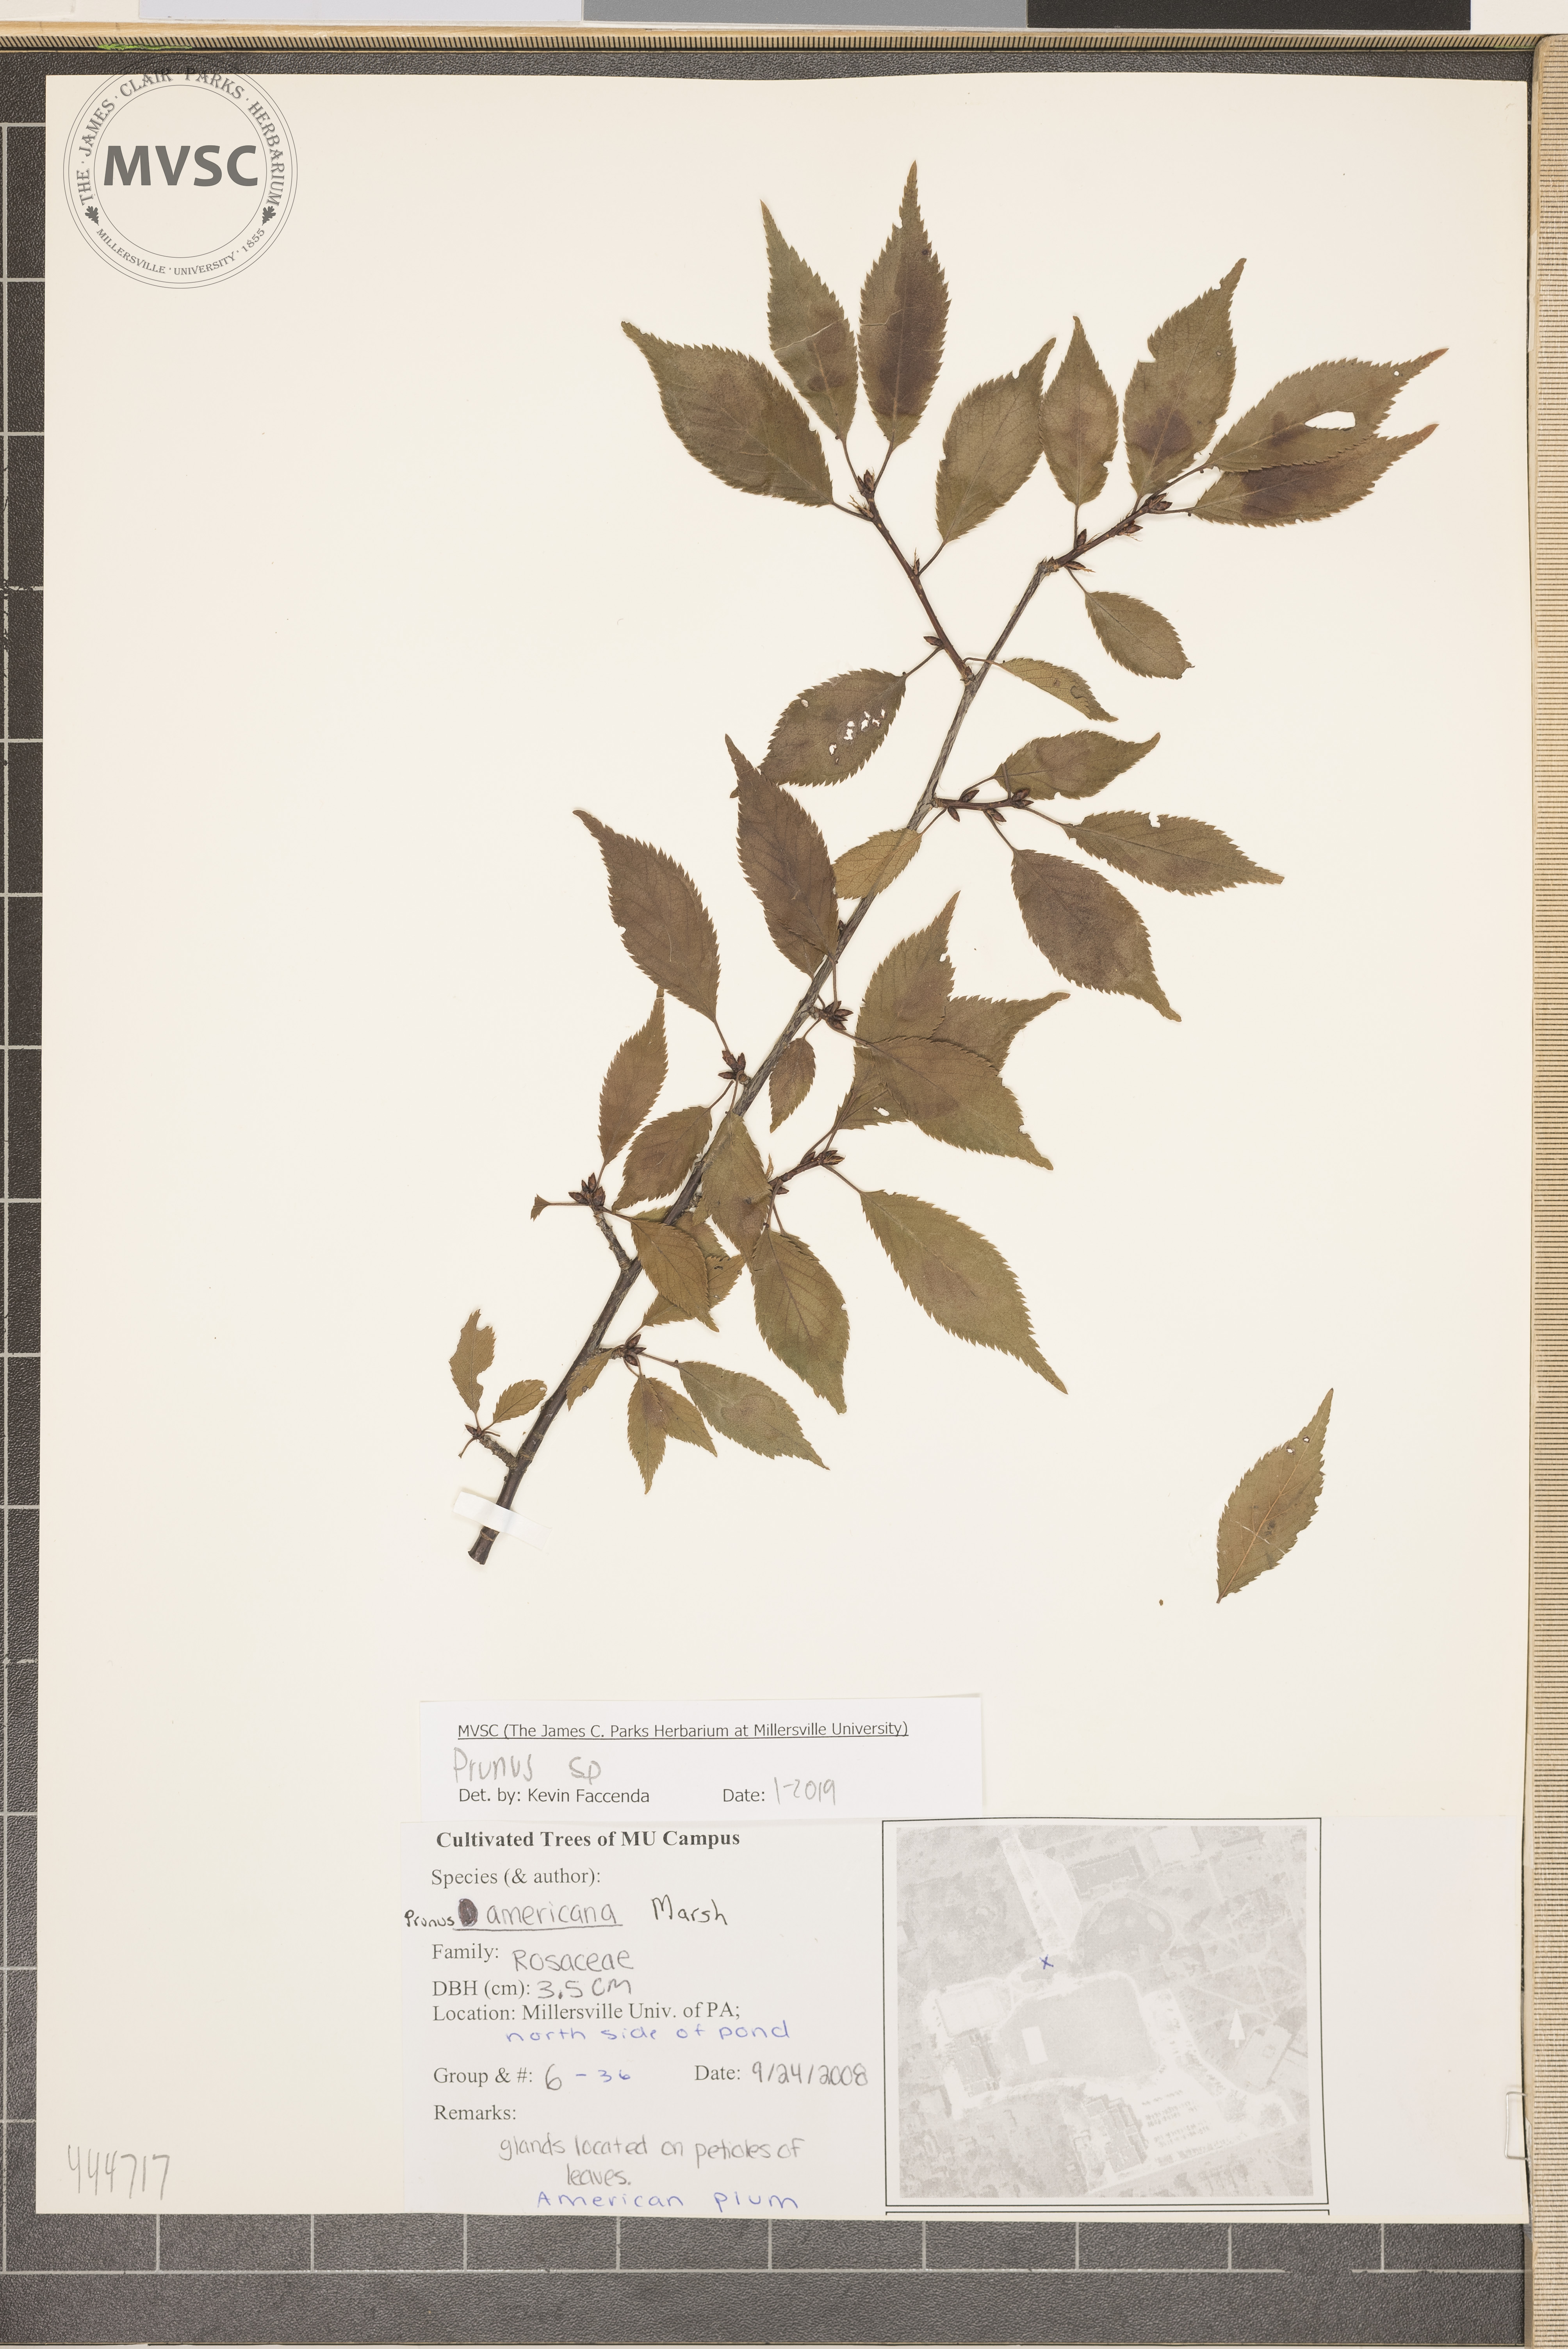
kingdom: Plantae
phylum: Tracheophyta
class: Magnoliopsida
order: Rosales
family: Rosaceae
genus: Prunus
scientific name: Prunus
